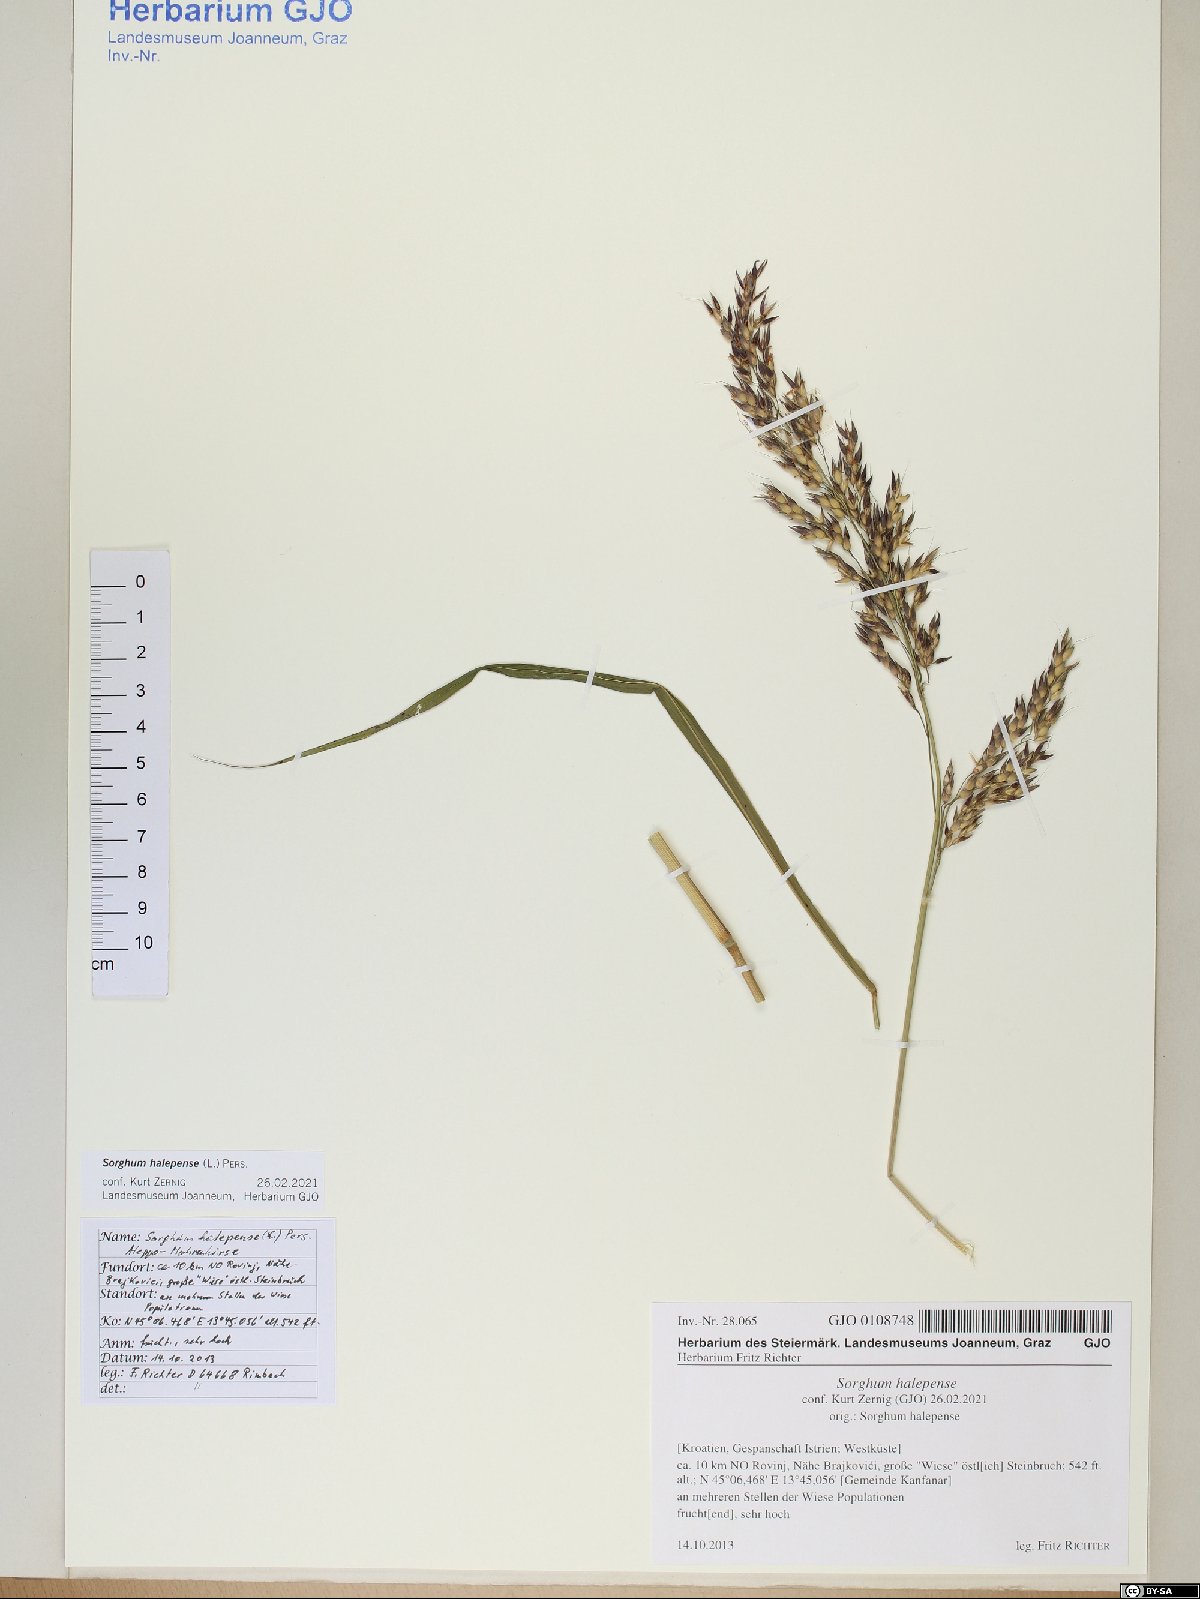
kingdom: Plantae
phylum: Tracheophyta
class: Liliopsida
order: Poales
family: Poaceae
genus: Sorghum
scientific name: Sorghum halepense
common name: Johnson-grass
